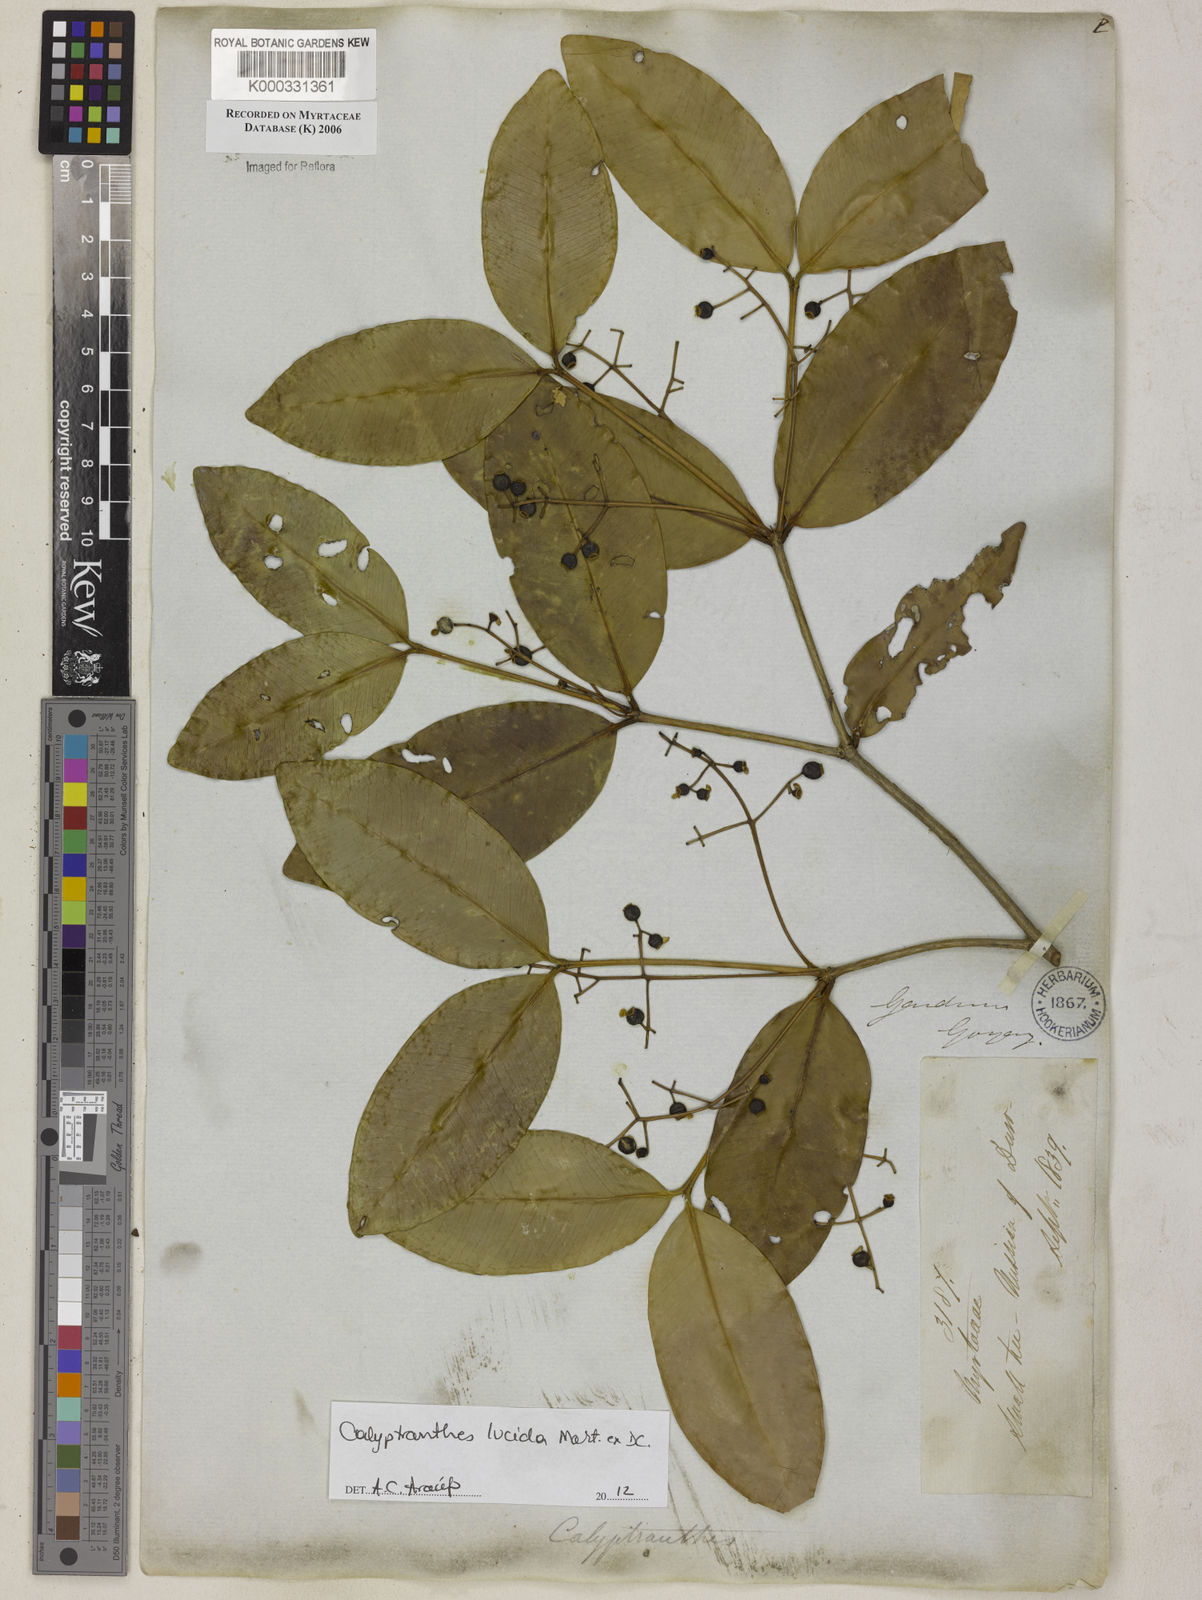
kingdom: Plantae
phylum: Tracheophyta
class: Magnoliopsida
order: Myrtales
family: Myrtaceae
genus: Calyptranthes
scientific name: Calyptranthes
